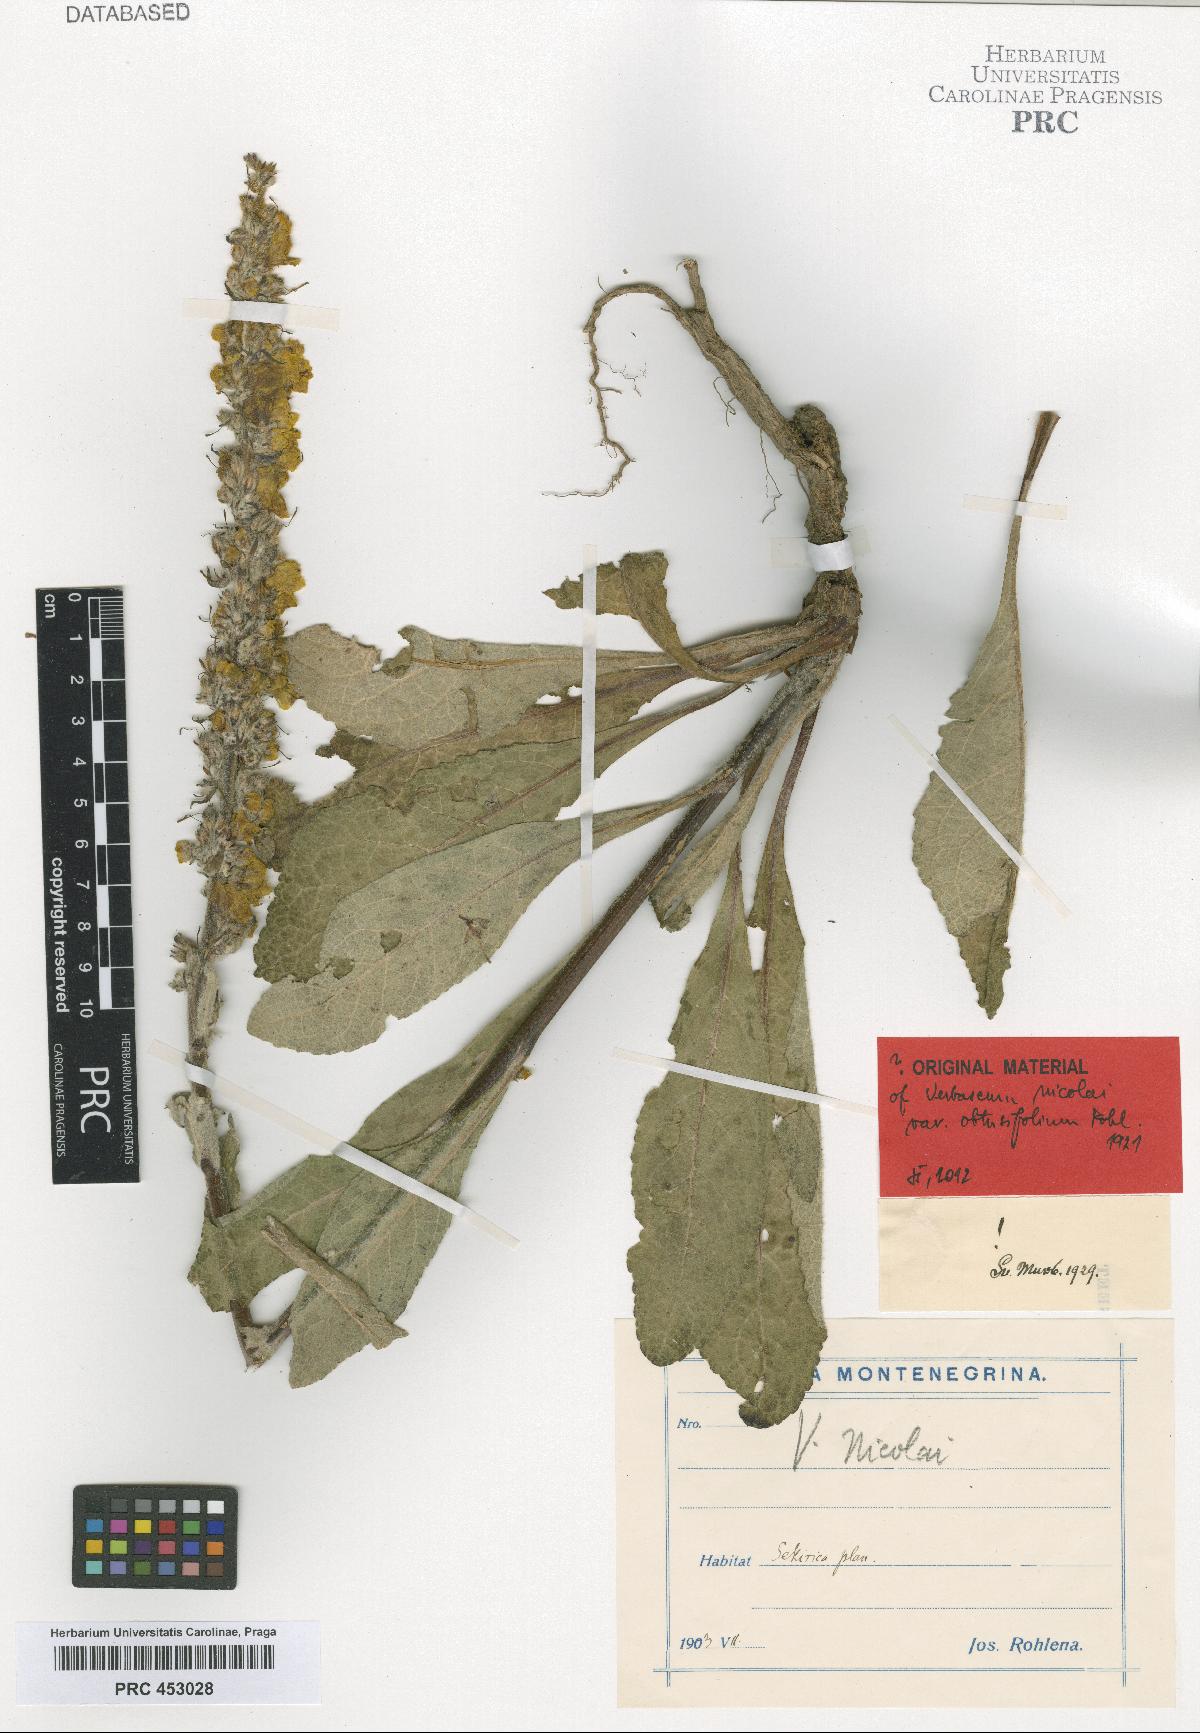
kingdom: Plantae
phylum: Tracheophyta
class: Magnoliopsida
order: Lamiales
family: Scrophulariaceae
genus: Verbascum
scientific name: Verbascum nicolai
